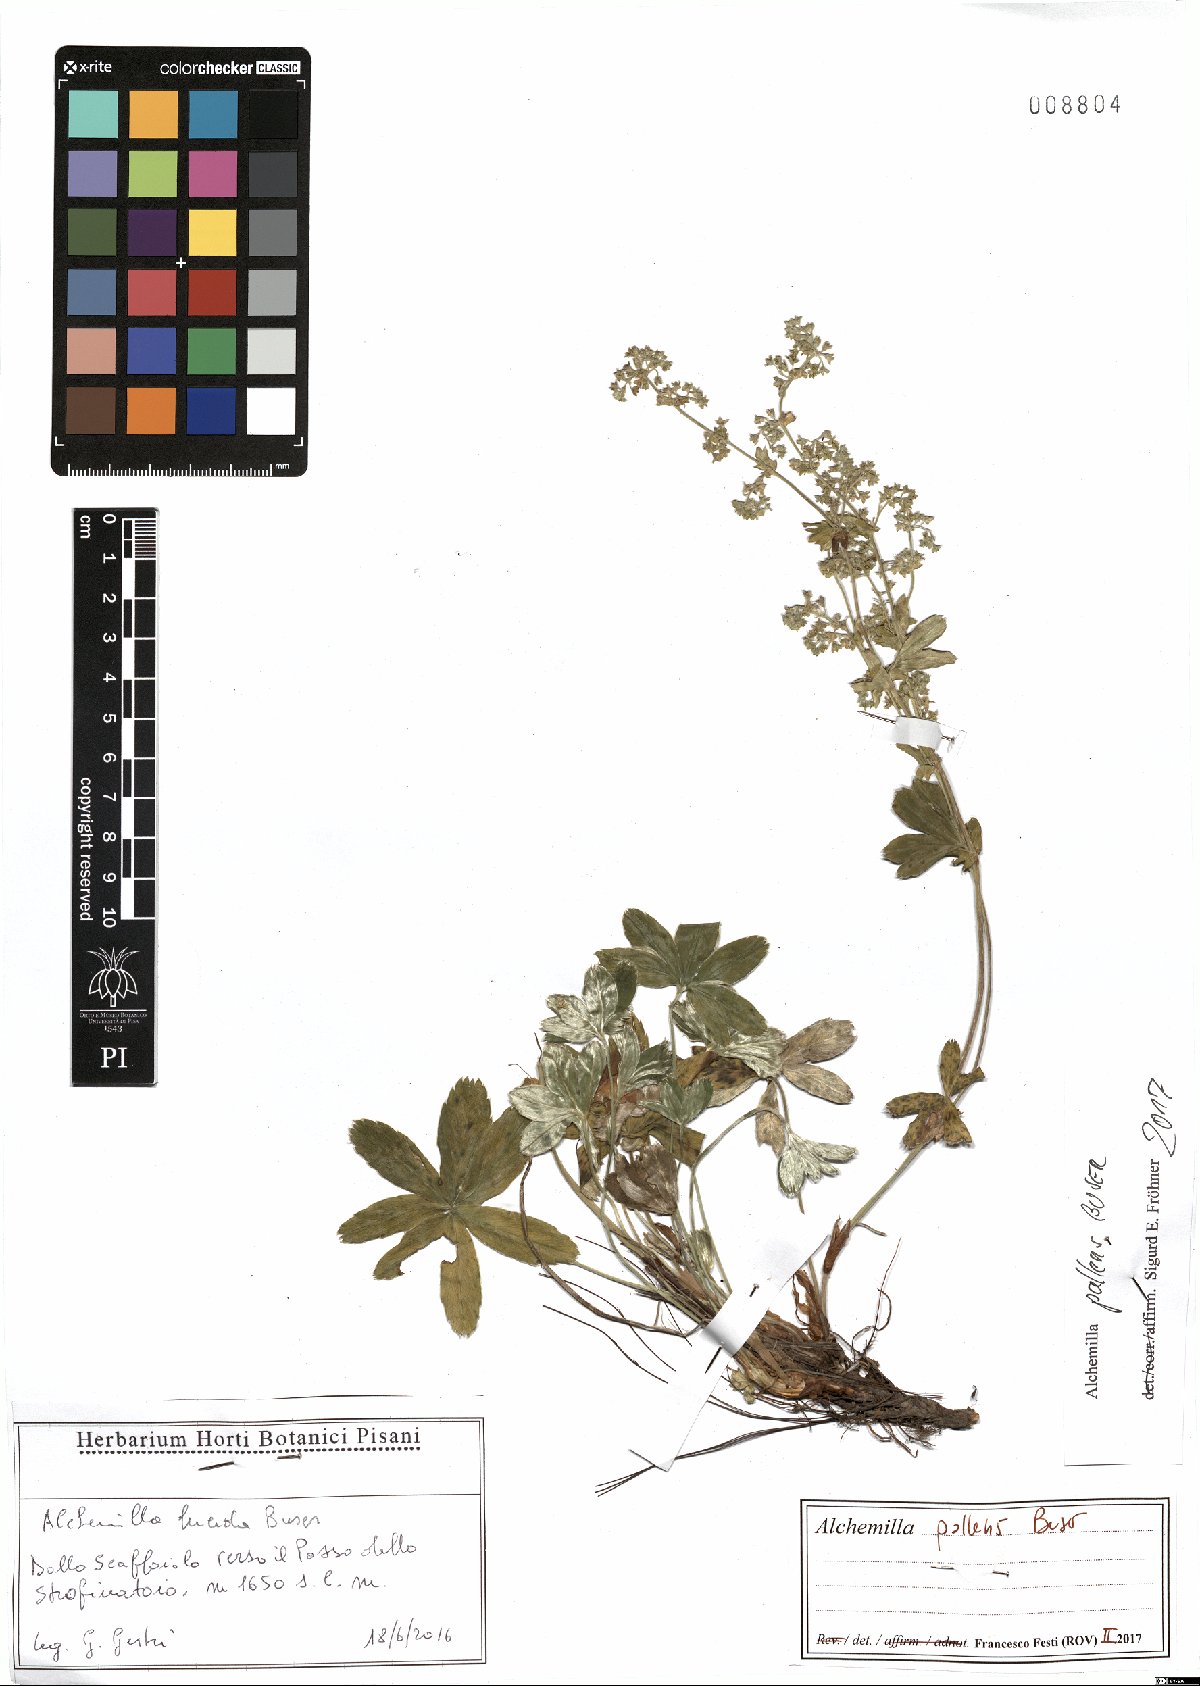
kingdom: Plantae
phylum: Tracheophyta
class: Magnoliopsida
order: Rosales
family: Rosaceae
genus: Alchemilla
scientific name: Alchemilla pallens
